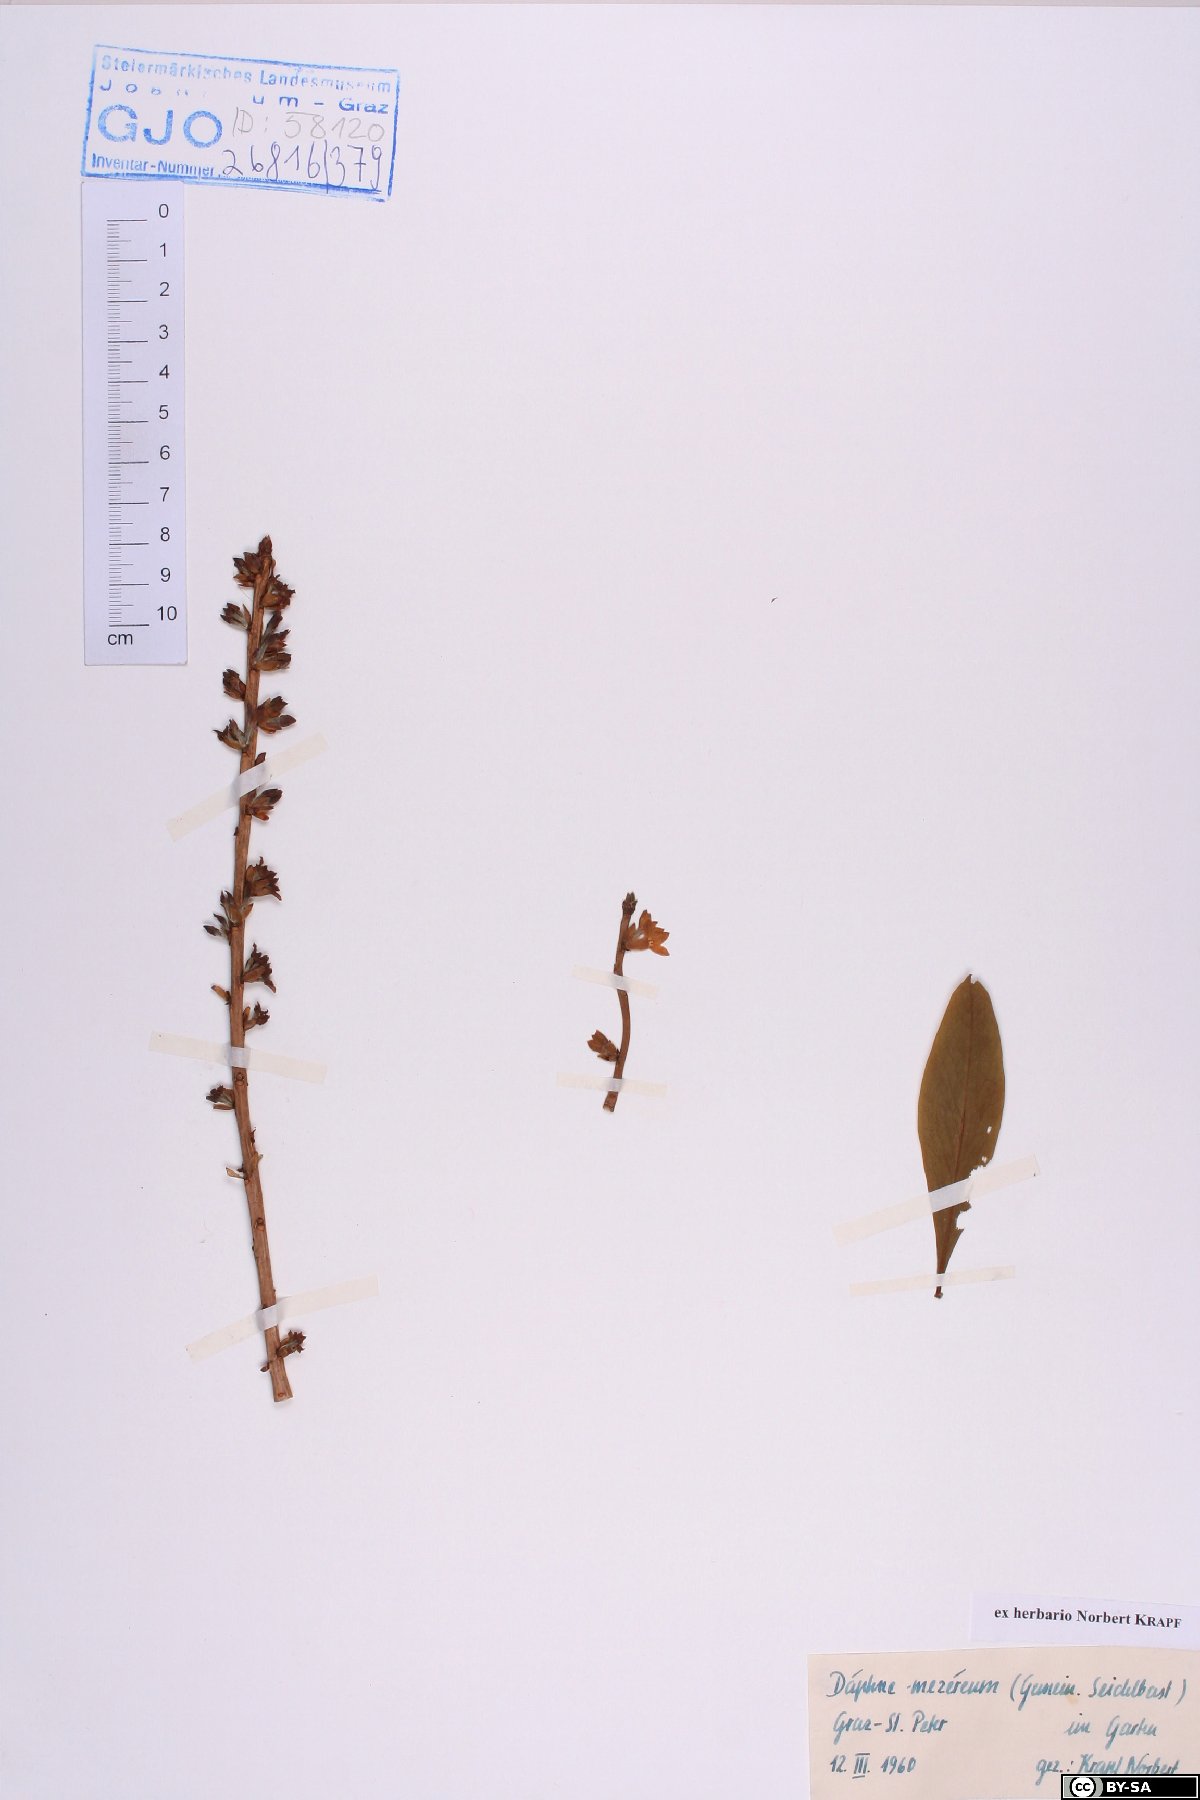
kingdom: Plantae
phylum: Tracheophyta
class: Magnoliopsida
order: Malvales
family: Thymelaeaceae
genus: Daphne
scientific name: Daphne mezereum
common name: Mezereon
